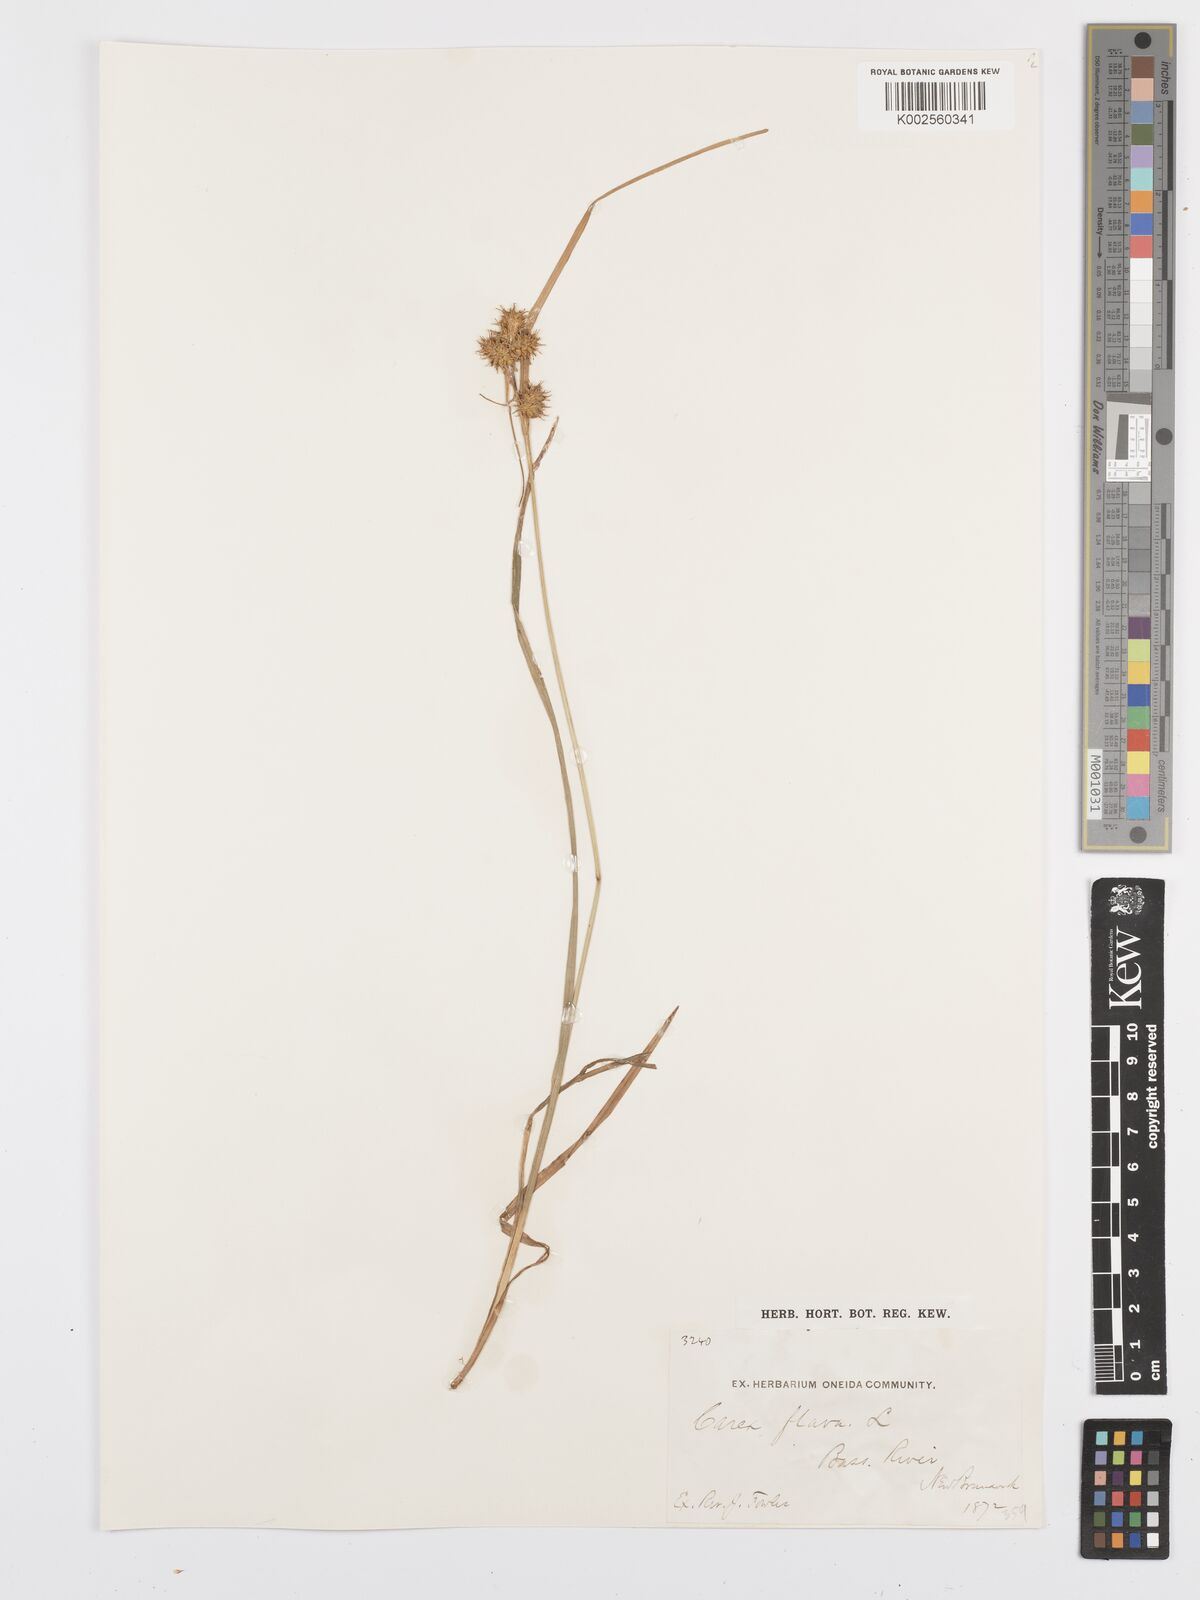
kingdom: Plantae
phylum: Tracheophyta
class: Liliopsida
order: Poales
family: Cyperaceae
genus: Carex
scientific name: Carex flava
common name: Large yellow-sedge
